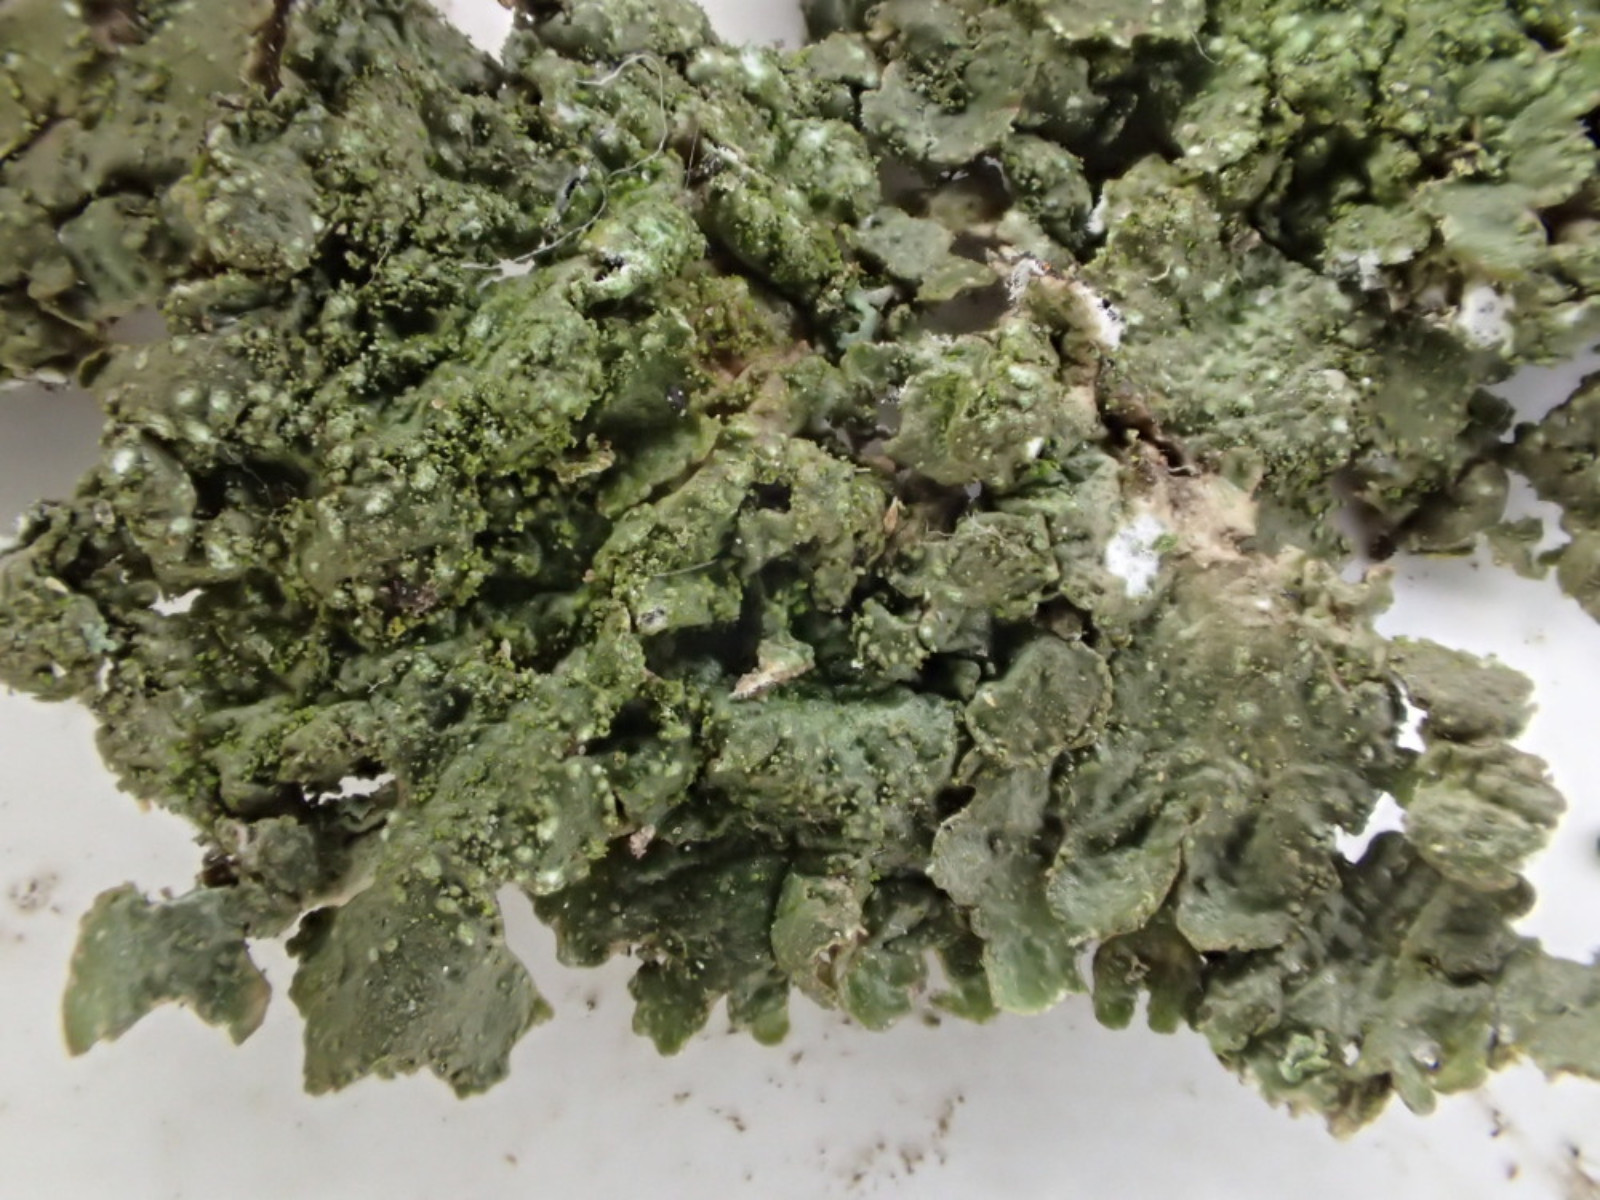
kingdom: Fungi
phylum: Ascomycota
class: Lecanoromycetes
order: Lecanorales
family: Parmeliaceae
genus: Melanelixia
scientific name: Melanelixia subaurifera
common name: guldpudret skållav
